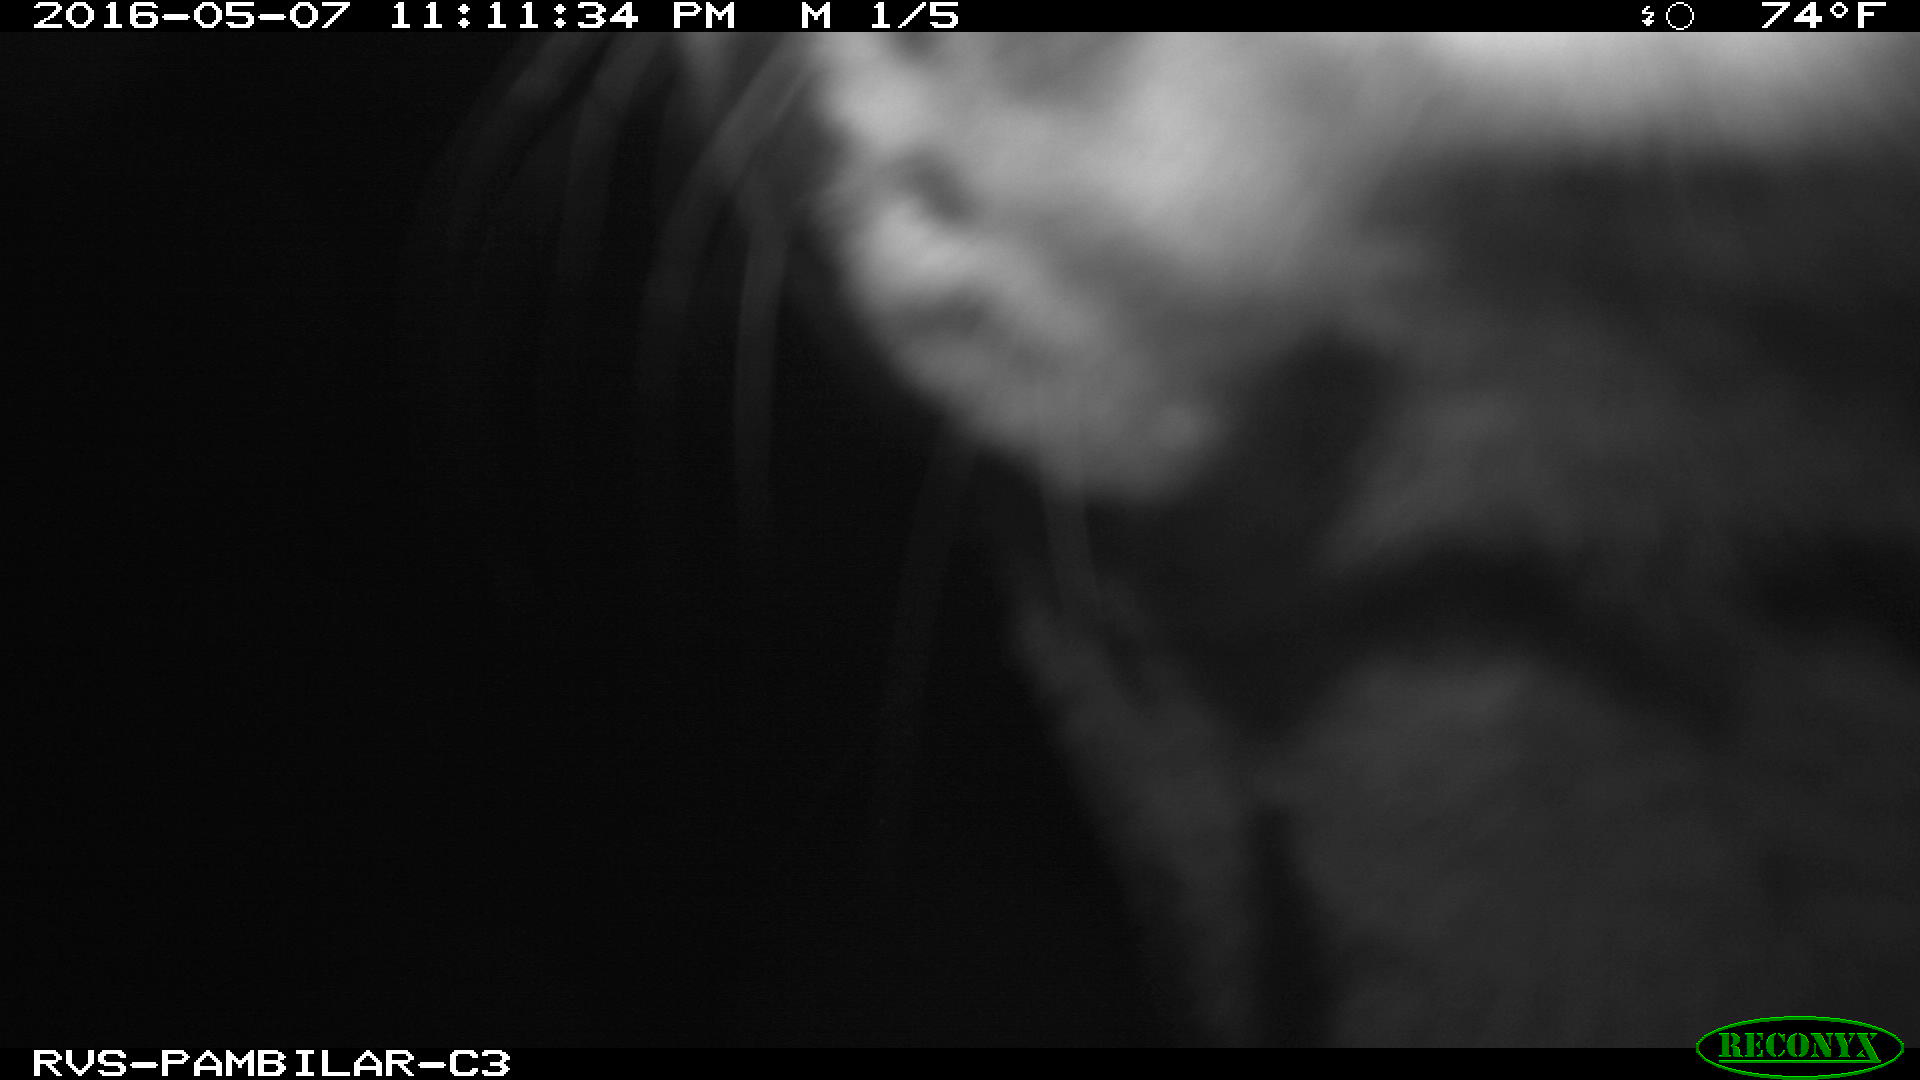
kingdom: Animalia
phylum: Chordata
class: Mammalia
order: Carnivora
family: Felidae
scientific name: Felidae
